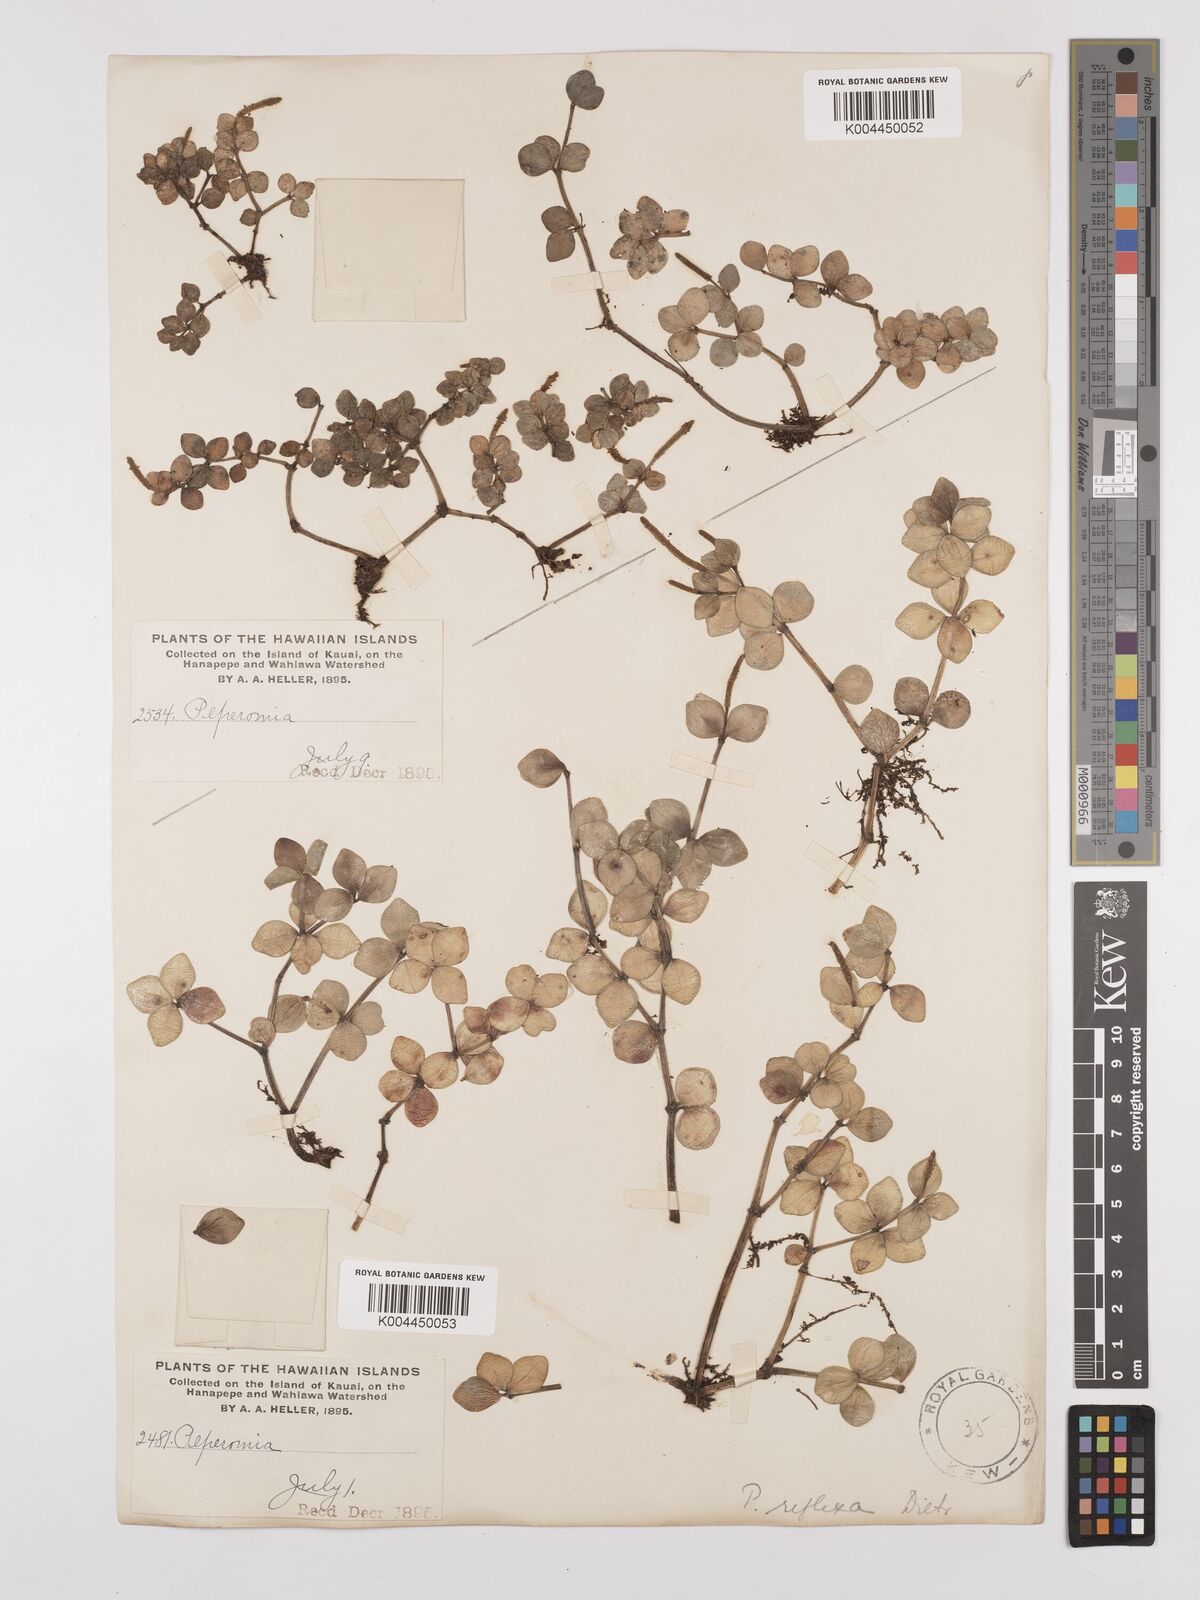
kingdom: Plantae
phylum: Tracheophyta
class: Magnoliopsida
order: Piperales
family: Piperaceae
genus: Peperomia
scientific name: Peperomia tetraphylla
